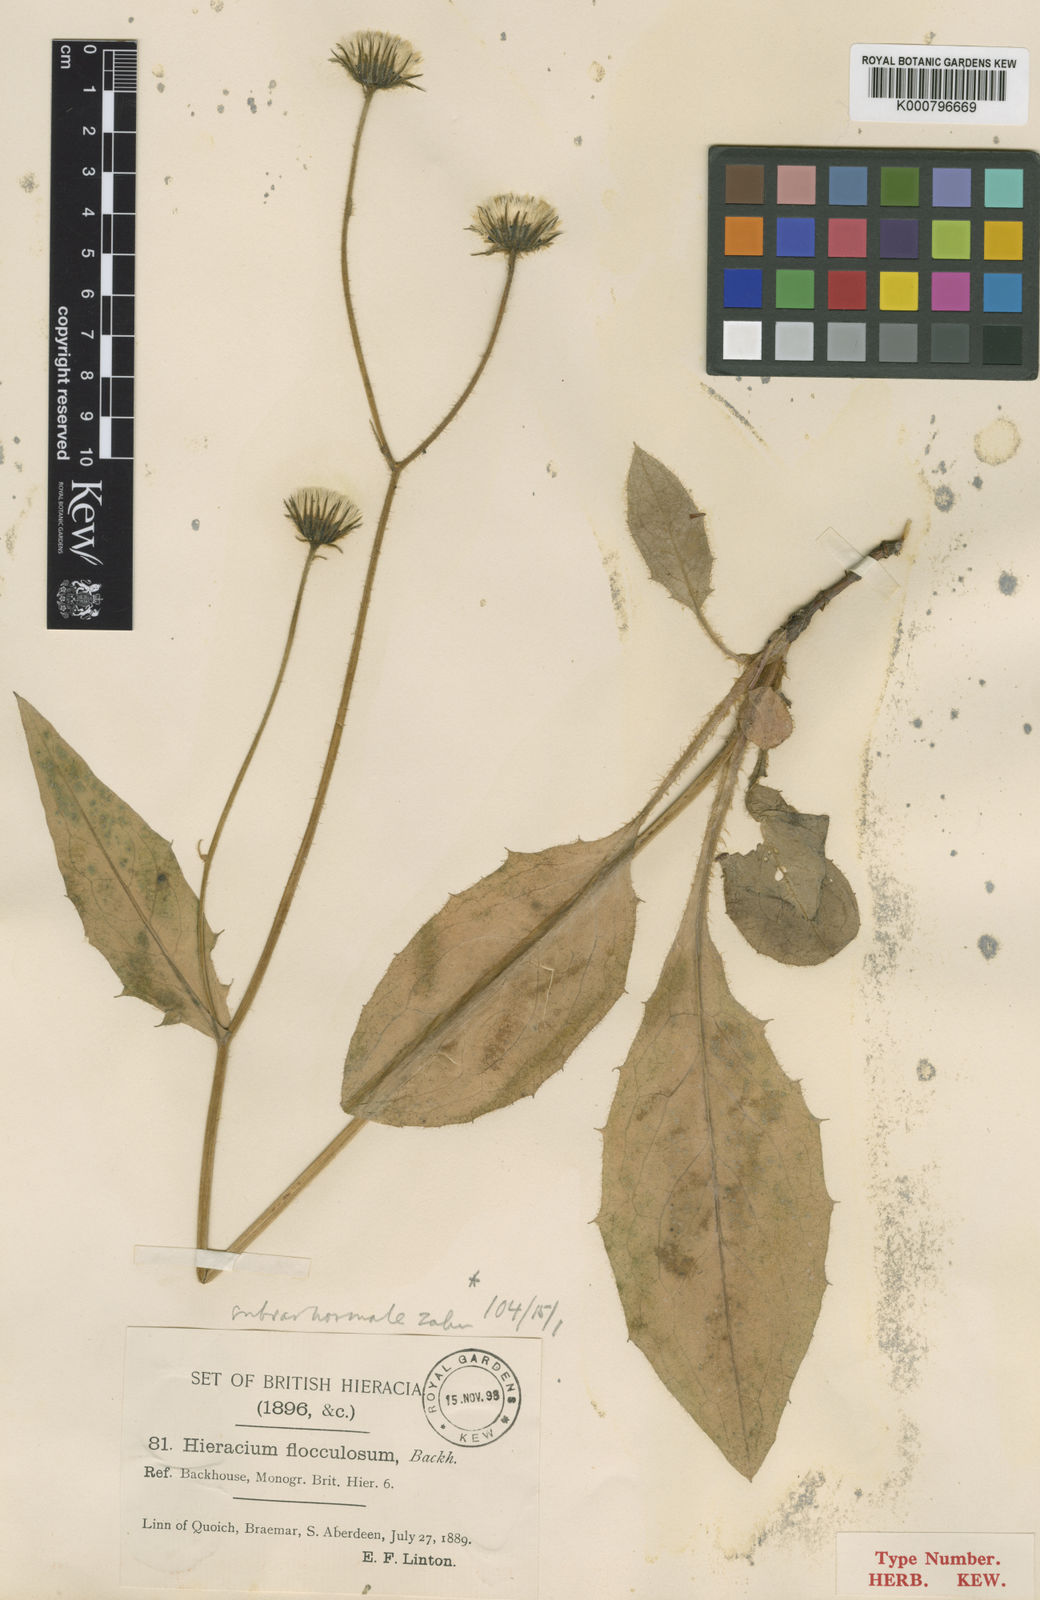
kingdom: Plantae
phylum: Tracheophyta
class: Magnoliopsida
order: Asterales
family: Asteraceae
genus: Hieracium
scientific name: Hieracium flocculosum
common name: Stellate-haired hawkweed
